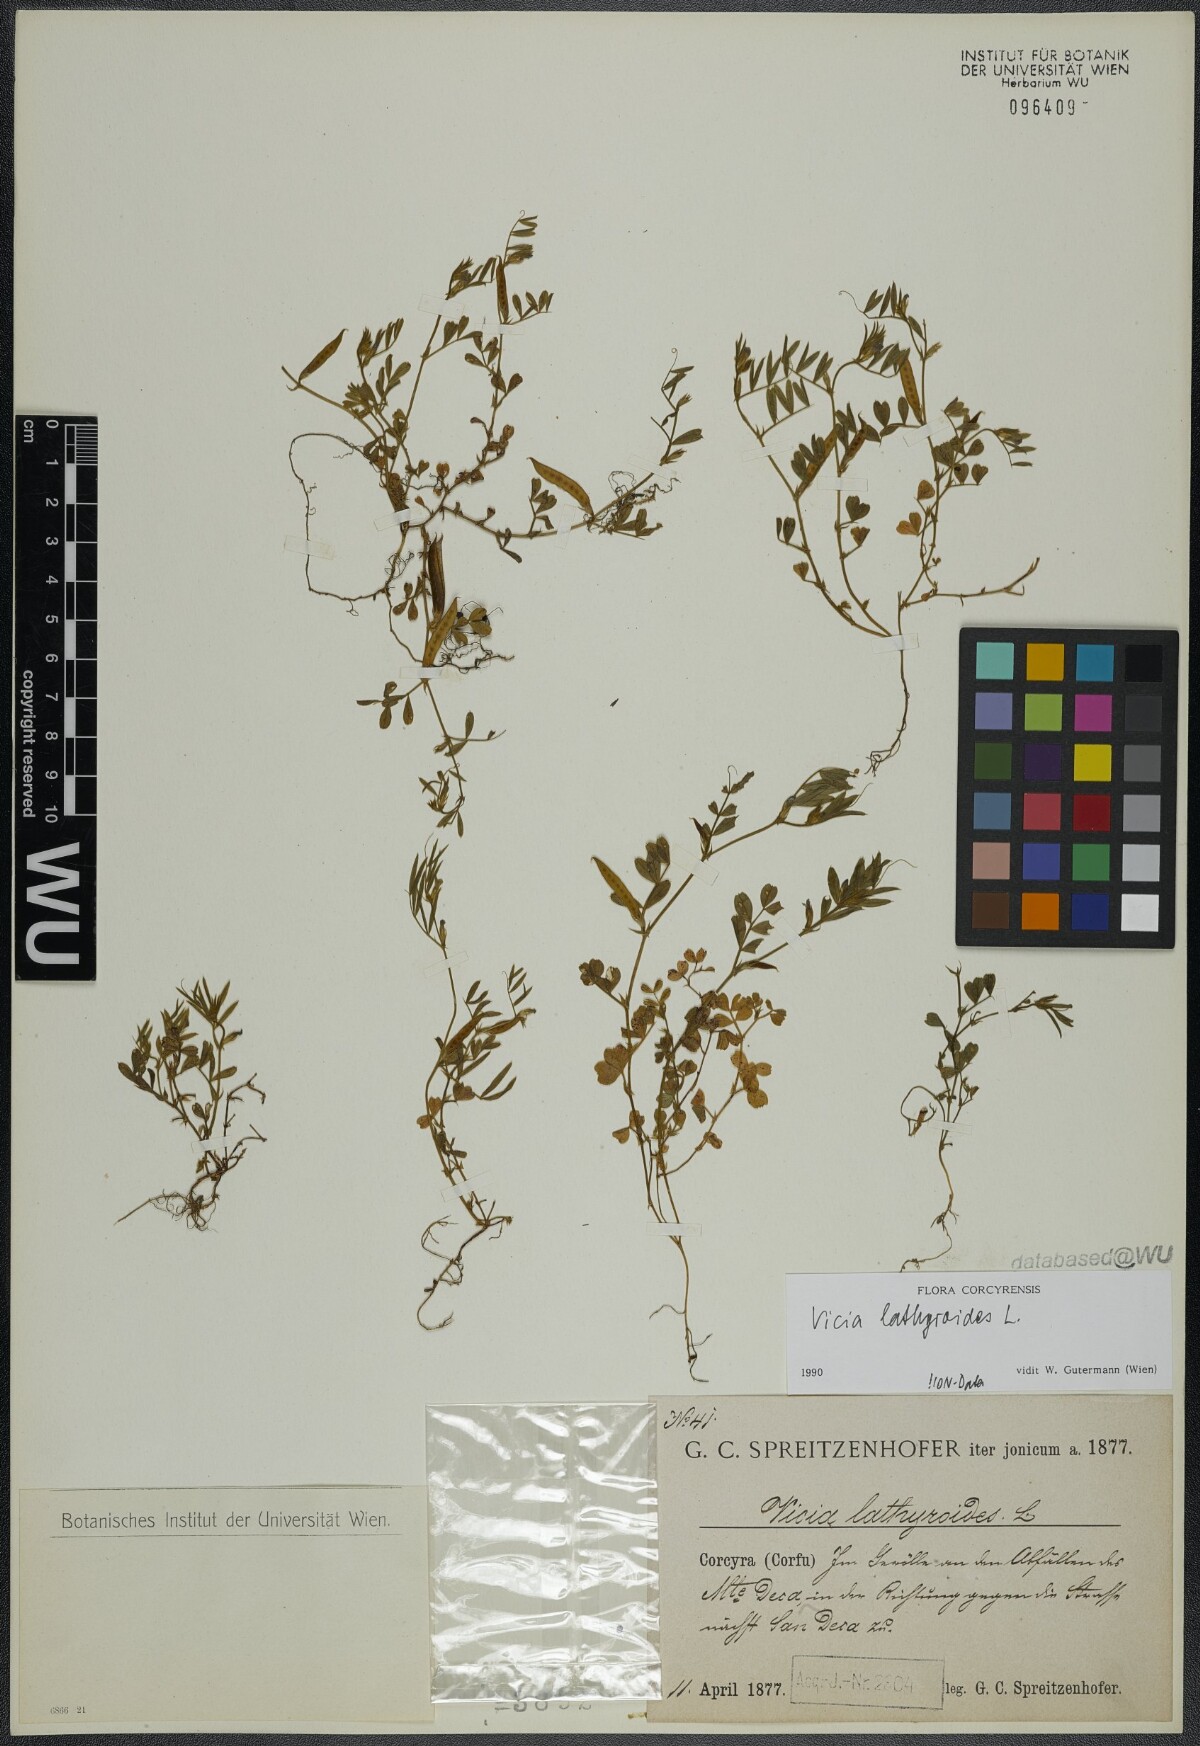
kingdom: Plantae
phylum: Tracheophyta
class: Magnoliopsida
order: Fabales
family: Fabaceae
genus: Vicia
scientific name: Vicia lathyroides
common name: Spring vetch
